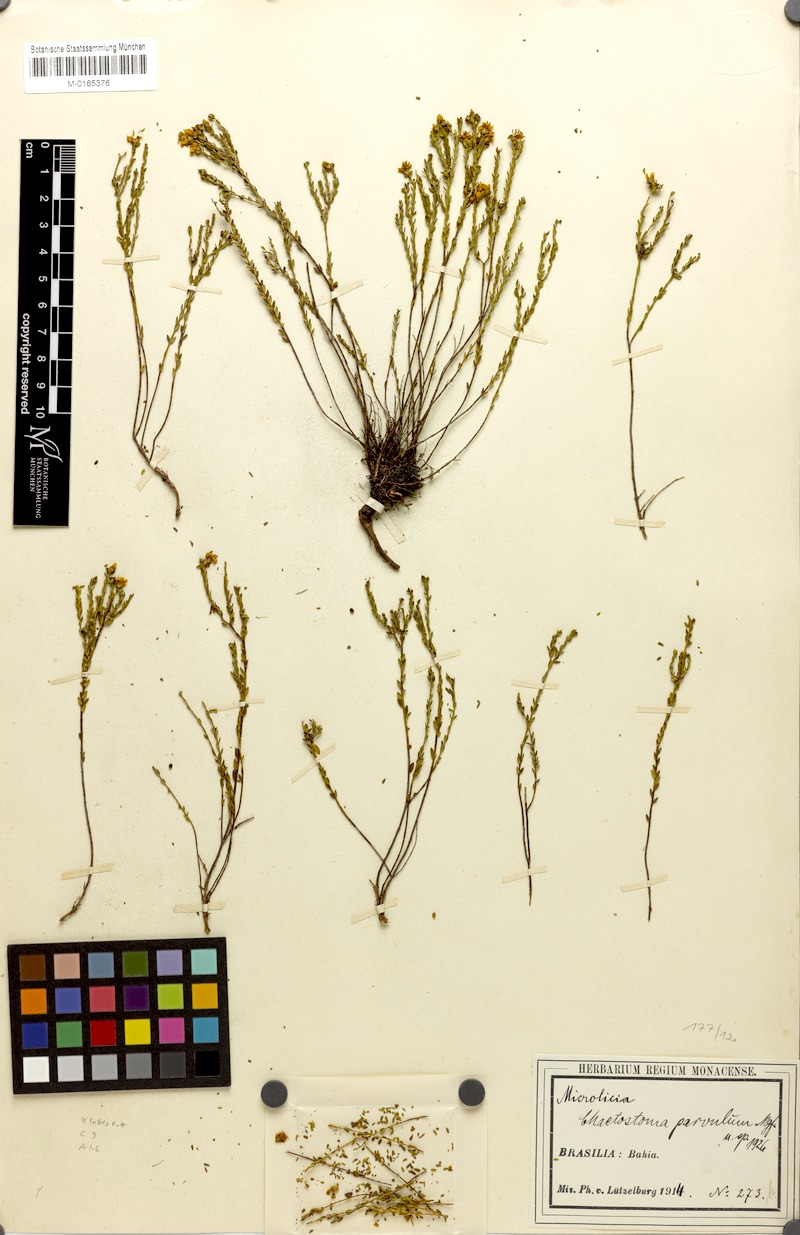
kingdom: Plantae
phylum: Tracheophyta
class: Magnoliopsida
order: Myrtales
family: Melastomataceae
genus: Microlicia
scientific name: Microlicia parvula
